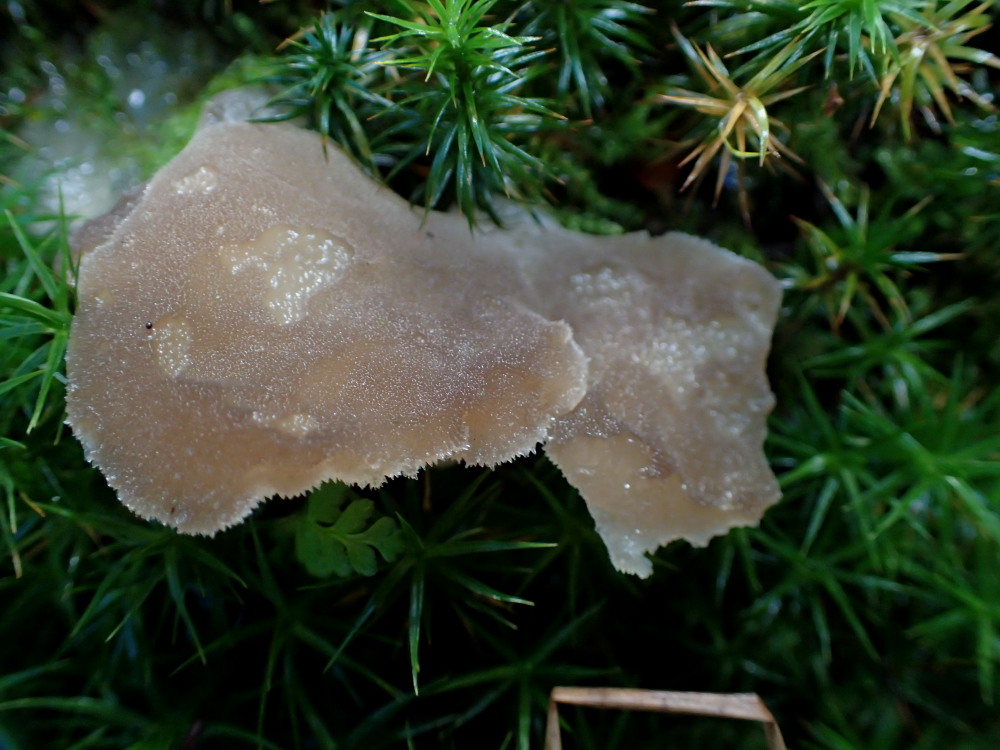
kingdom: Fungi
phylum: Basidiomycota
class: Agaricomycetes
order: Auriculariales
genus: Pseudohydnum
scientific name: Pseudohydnum gelatinosum
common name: bævretand
